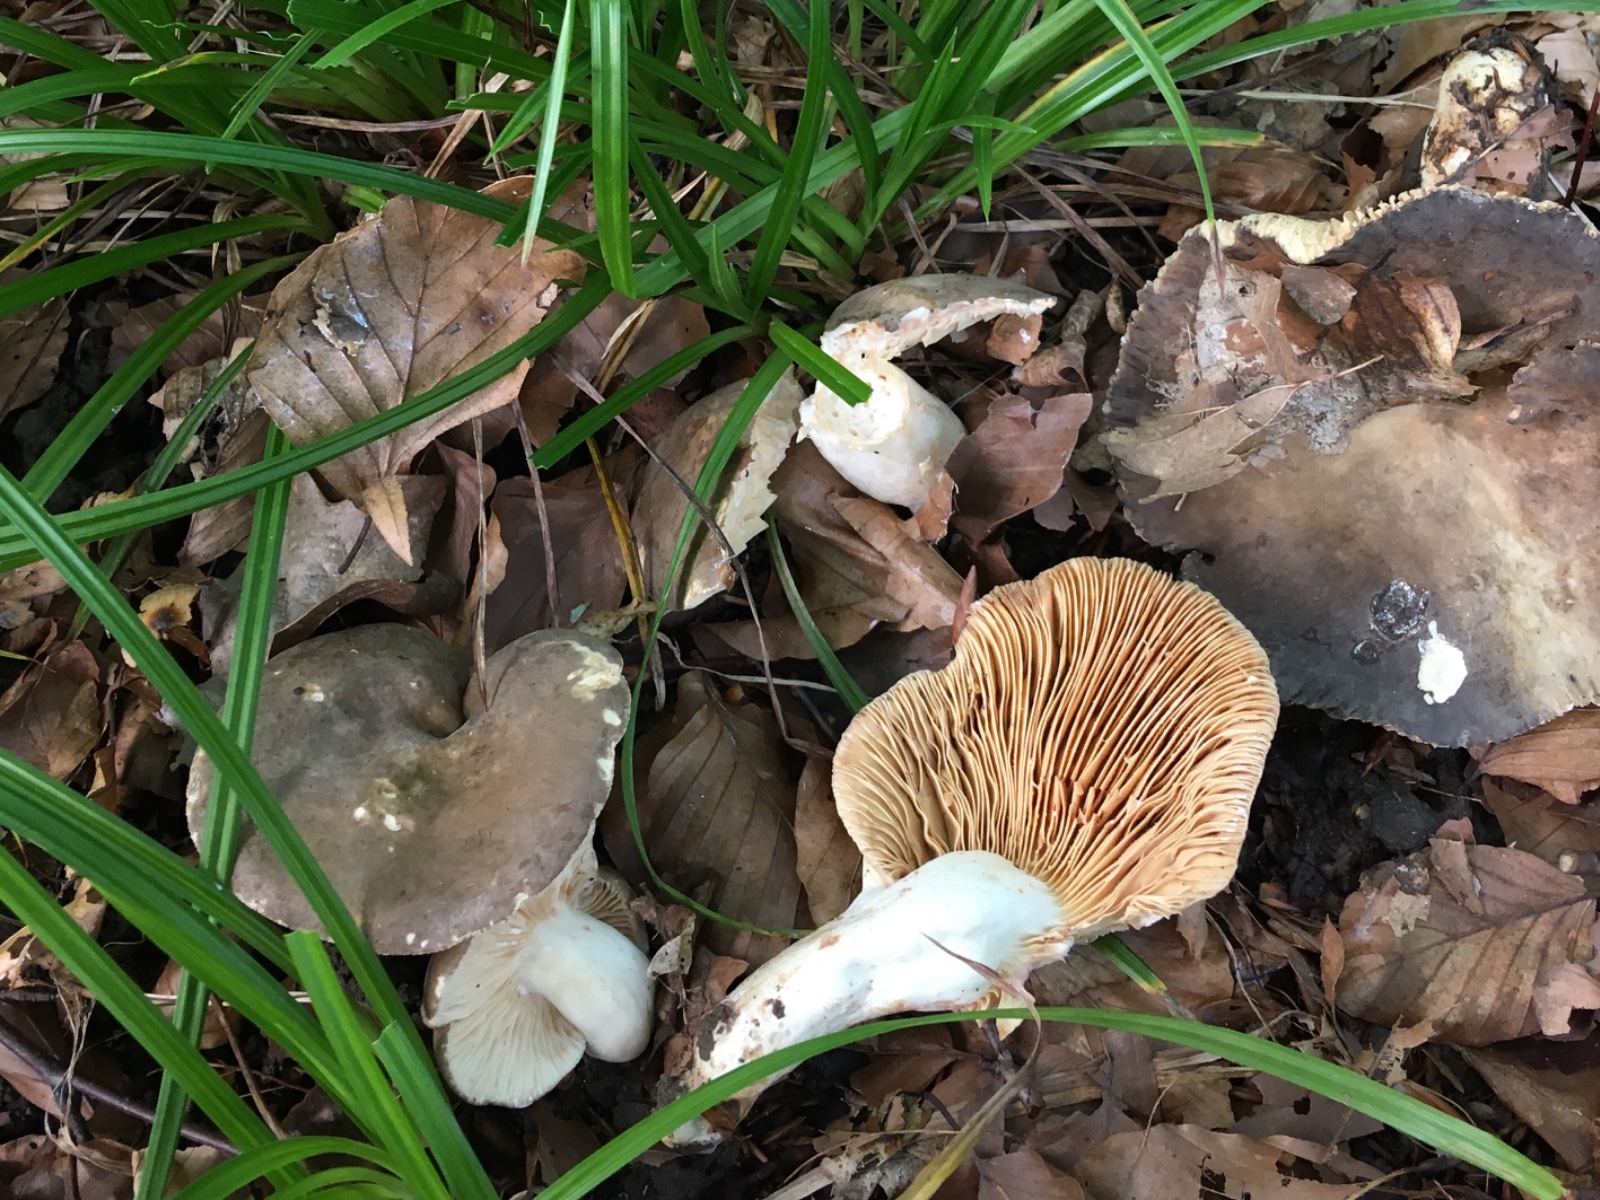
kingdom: Fungi
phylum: Basidiomycota
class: Agaricomycetes
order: Russulales
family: Russulaceae
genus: Lactarius
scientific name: Lactarius azonites
